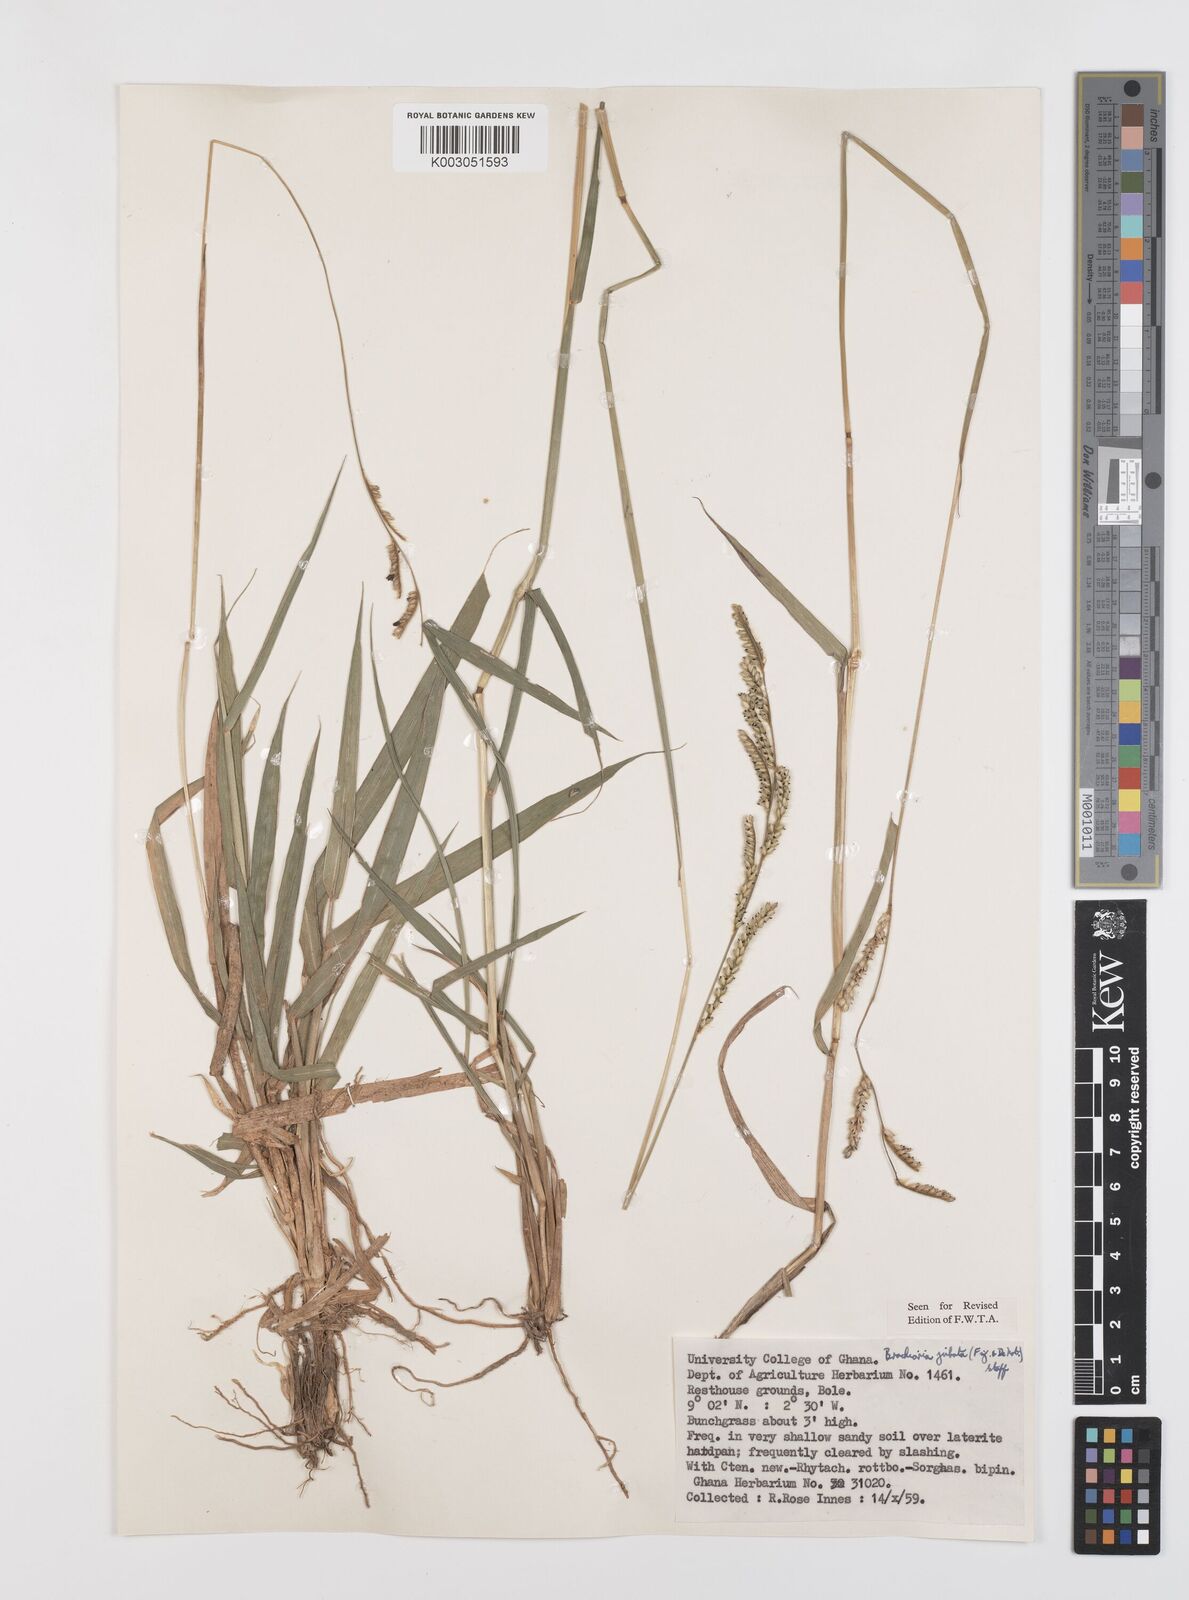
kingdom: Plantae
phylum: Tracheophyta
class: Liliopsida
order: Poales
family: Poaceae
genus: Urochloa
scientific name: Urochloa jubata
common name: Buffalograss
